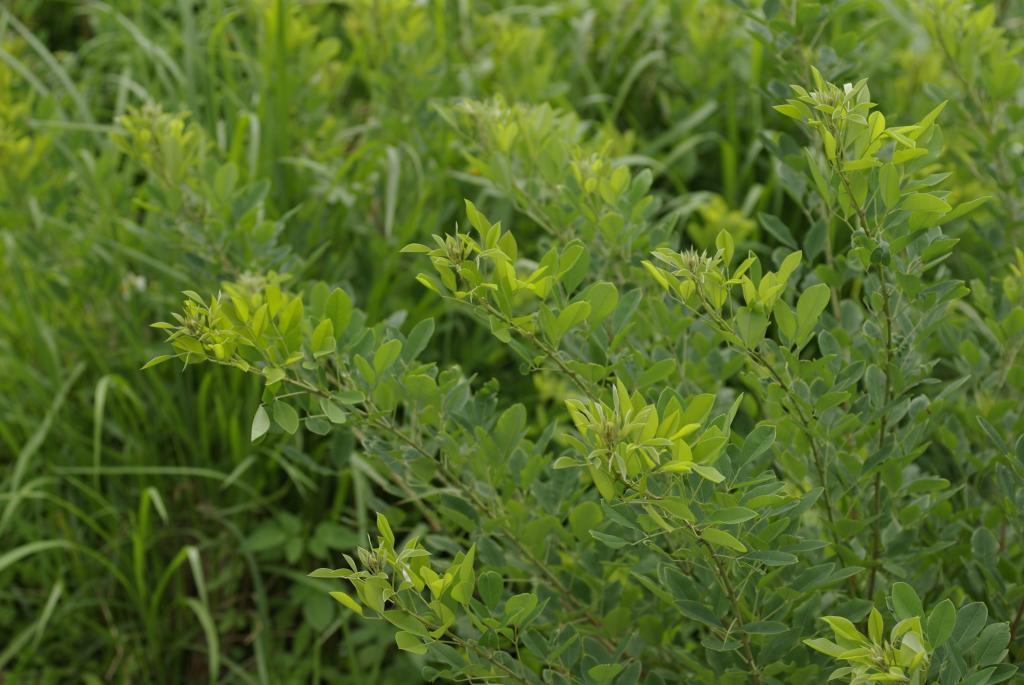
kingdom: Plantae
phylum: Tracheophyta
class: Magnoliopsida
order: Fabales
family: Fabaceae
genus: Lespedeza
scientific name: Lespedeza thunbergii
